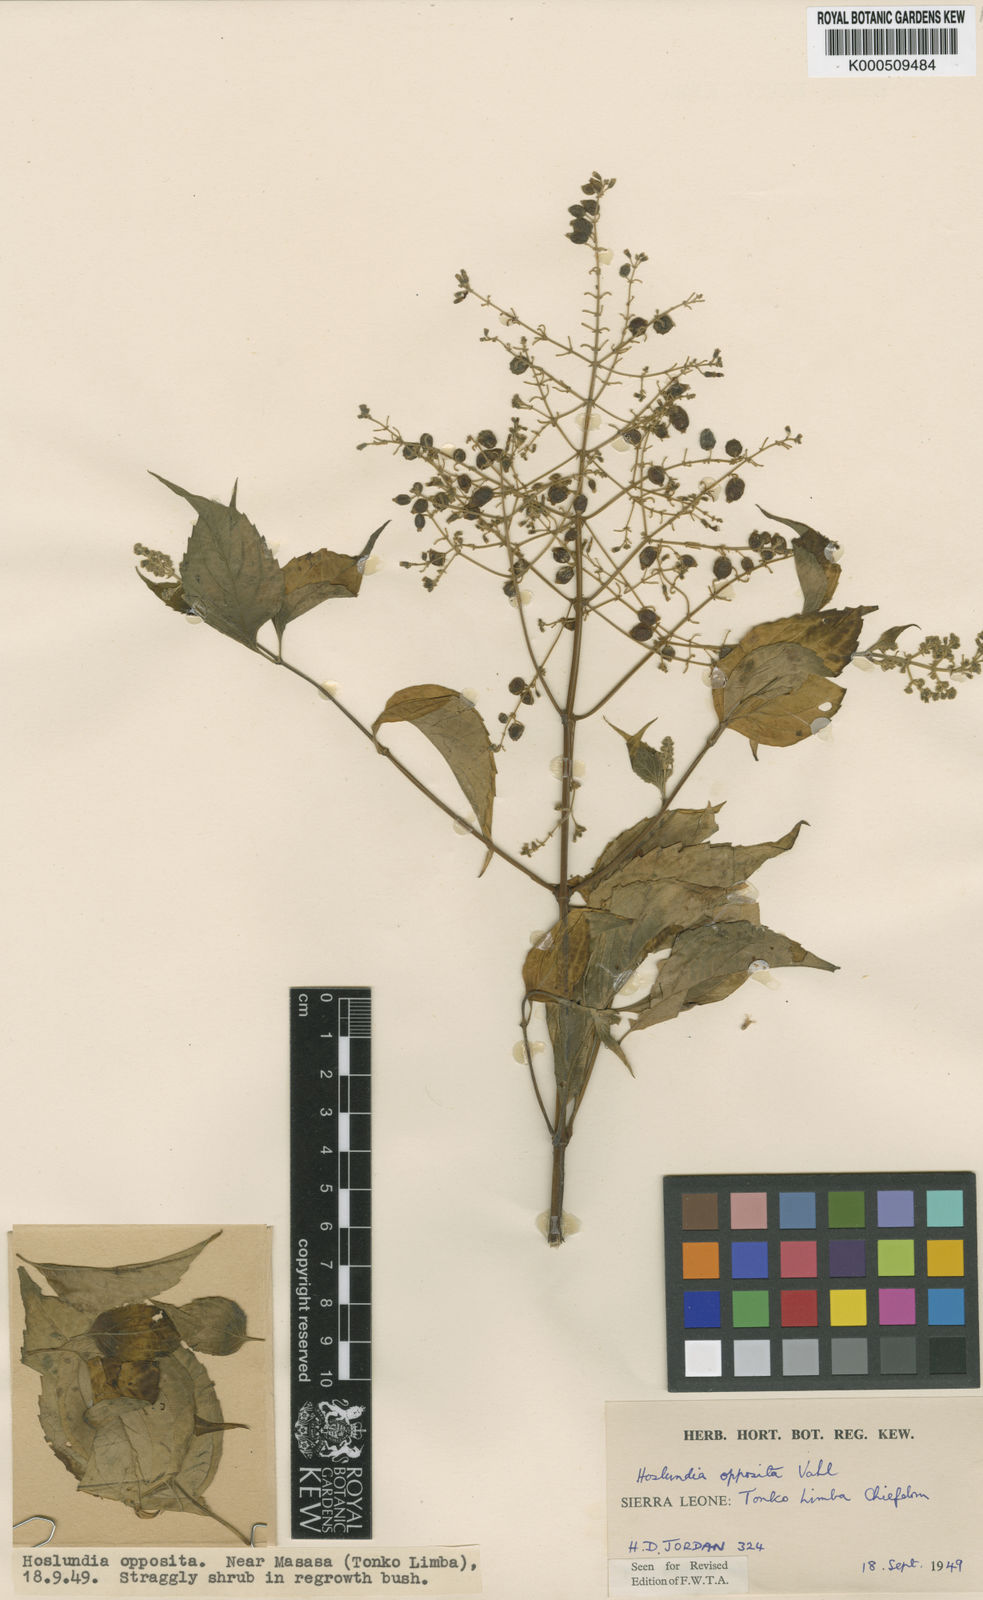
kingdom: Plantae
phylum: Tracheophyta
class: Magnoliopsida
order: Lamiales
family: Lamiaceae
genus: Hoslundia
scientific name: Hoslundia opposita
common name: Kamyuye
